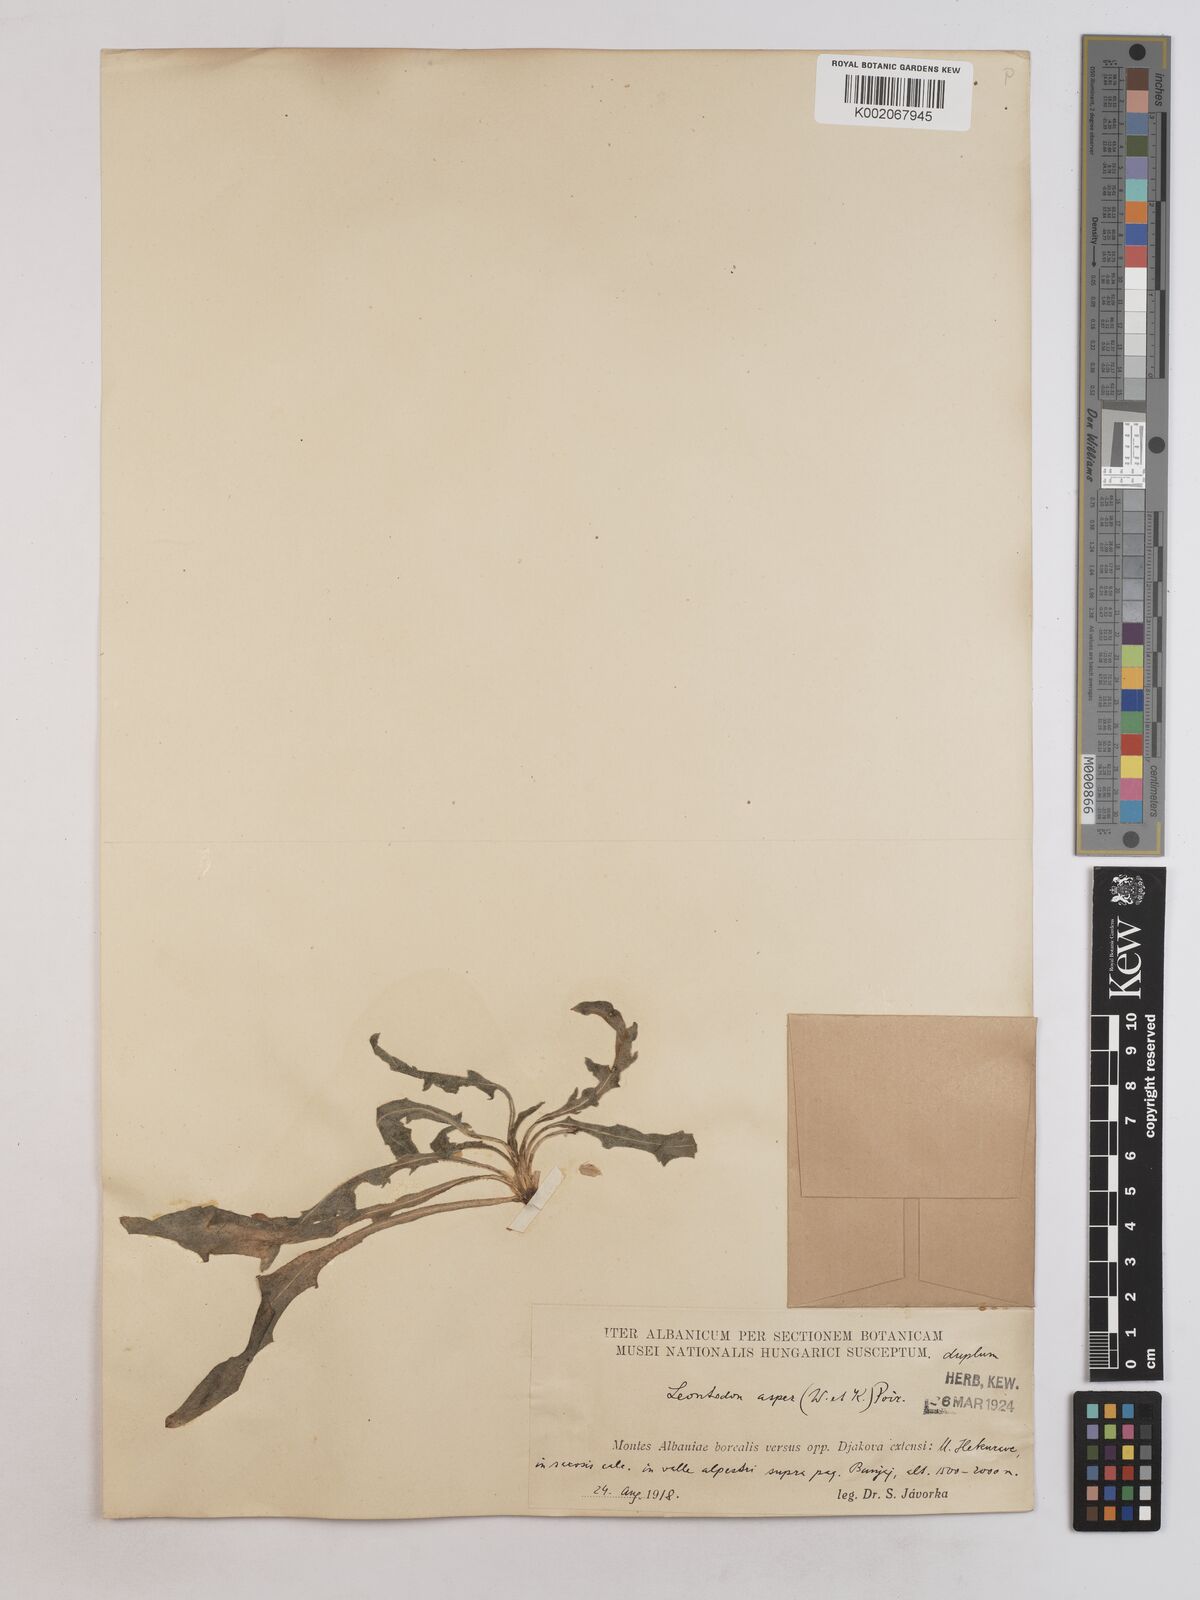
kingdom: Plantae
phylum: Tracheophyta
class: Magnoliopsida
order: Asterales
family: Asteraceae
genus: Leontodon
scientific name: Leontodon
